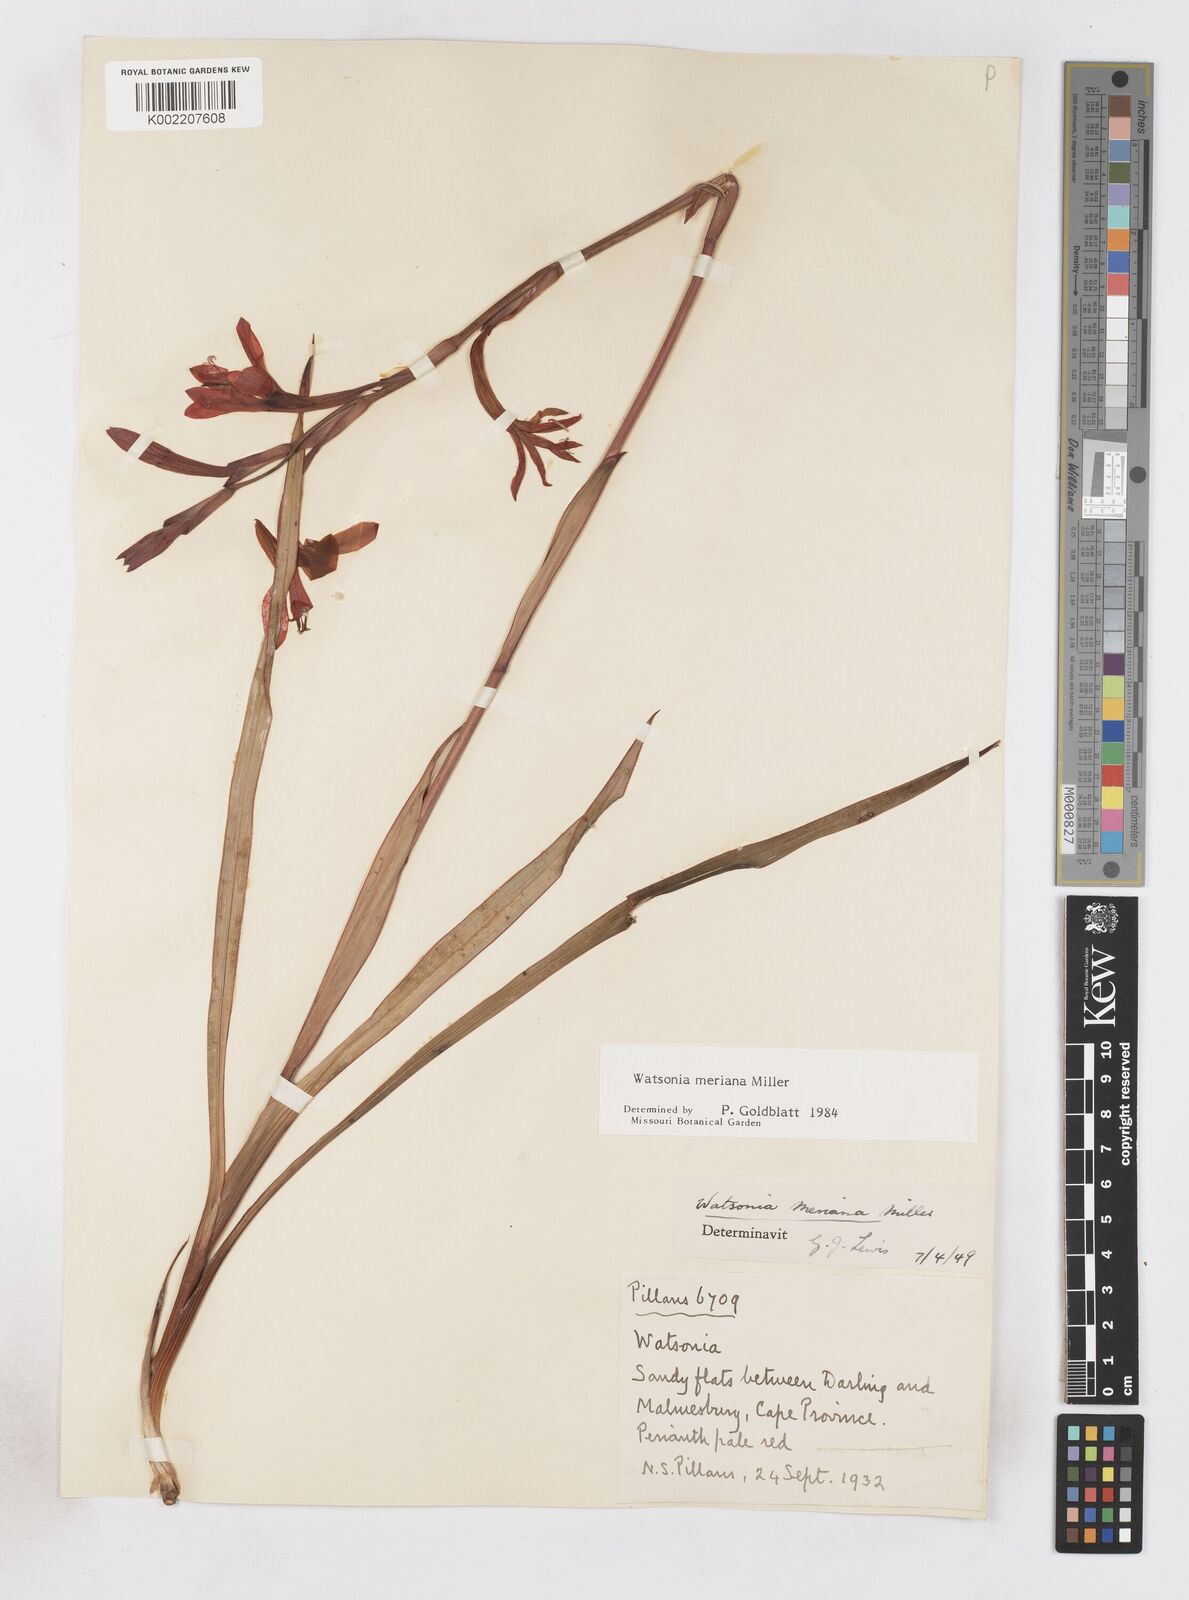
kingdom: Plantae
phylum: Tracheophyta
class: Liliopsida
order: Asparagales
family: Iridaceae
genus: Watsonia
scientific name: Watsonia meriana
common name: Bulbil bugle-lily
